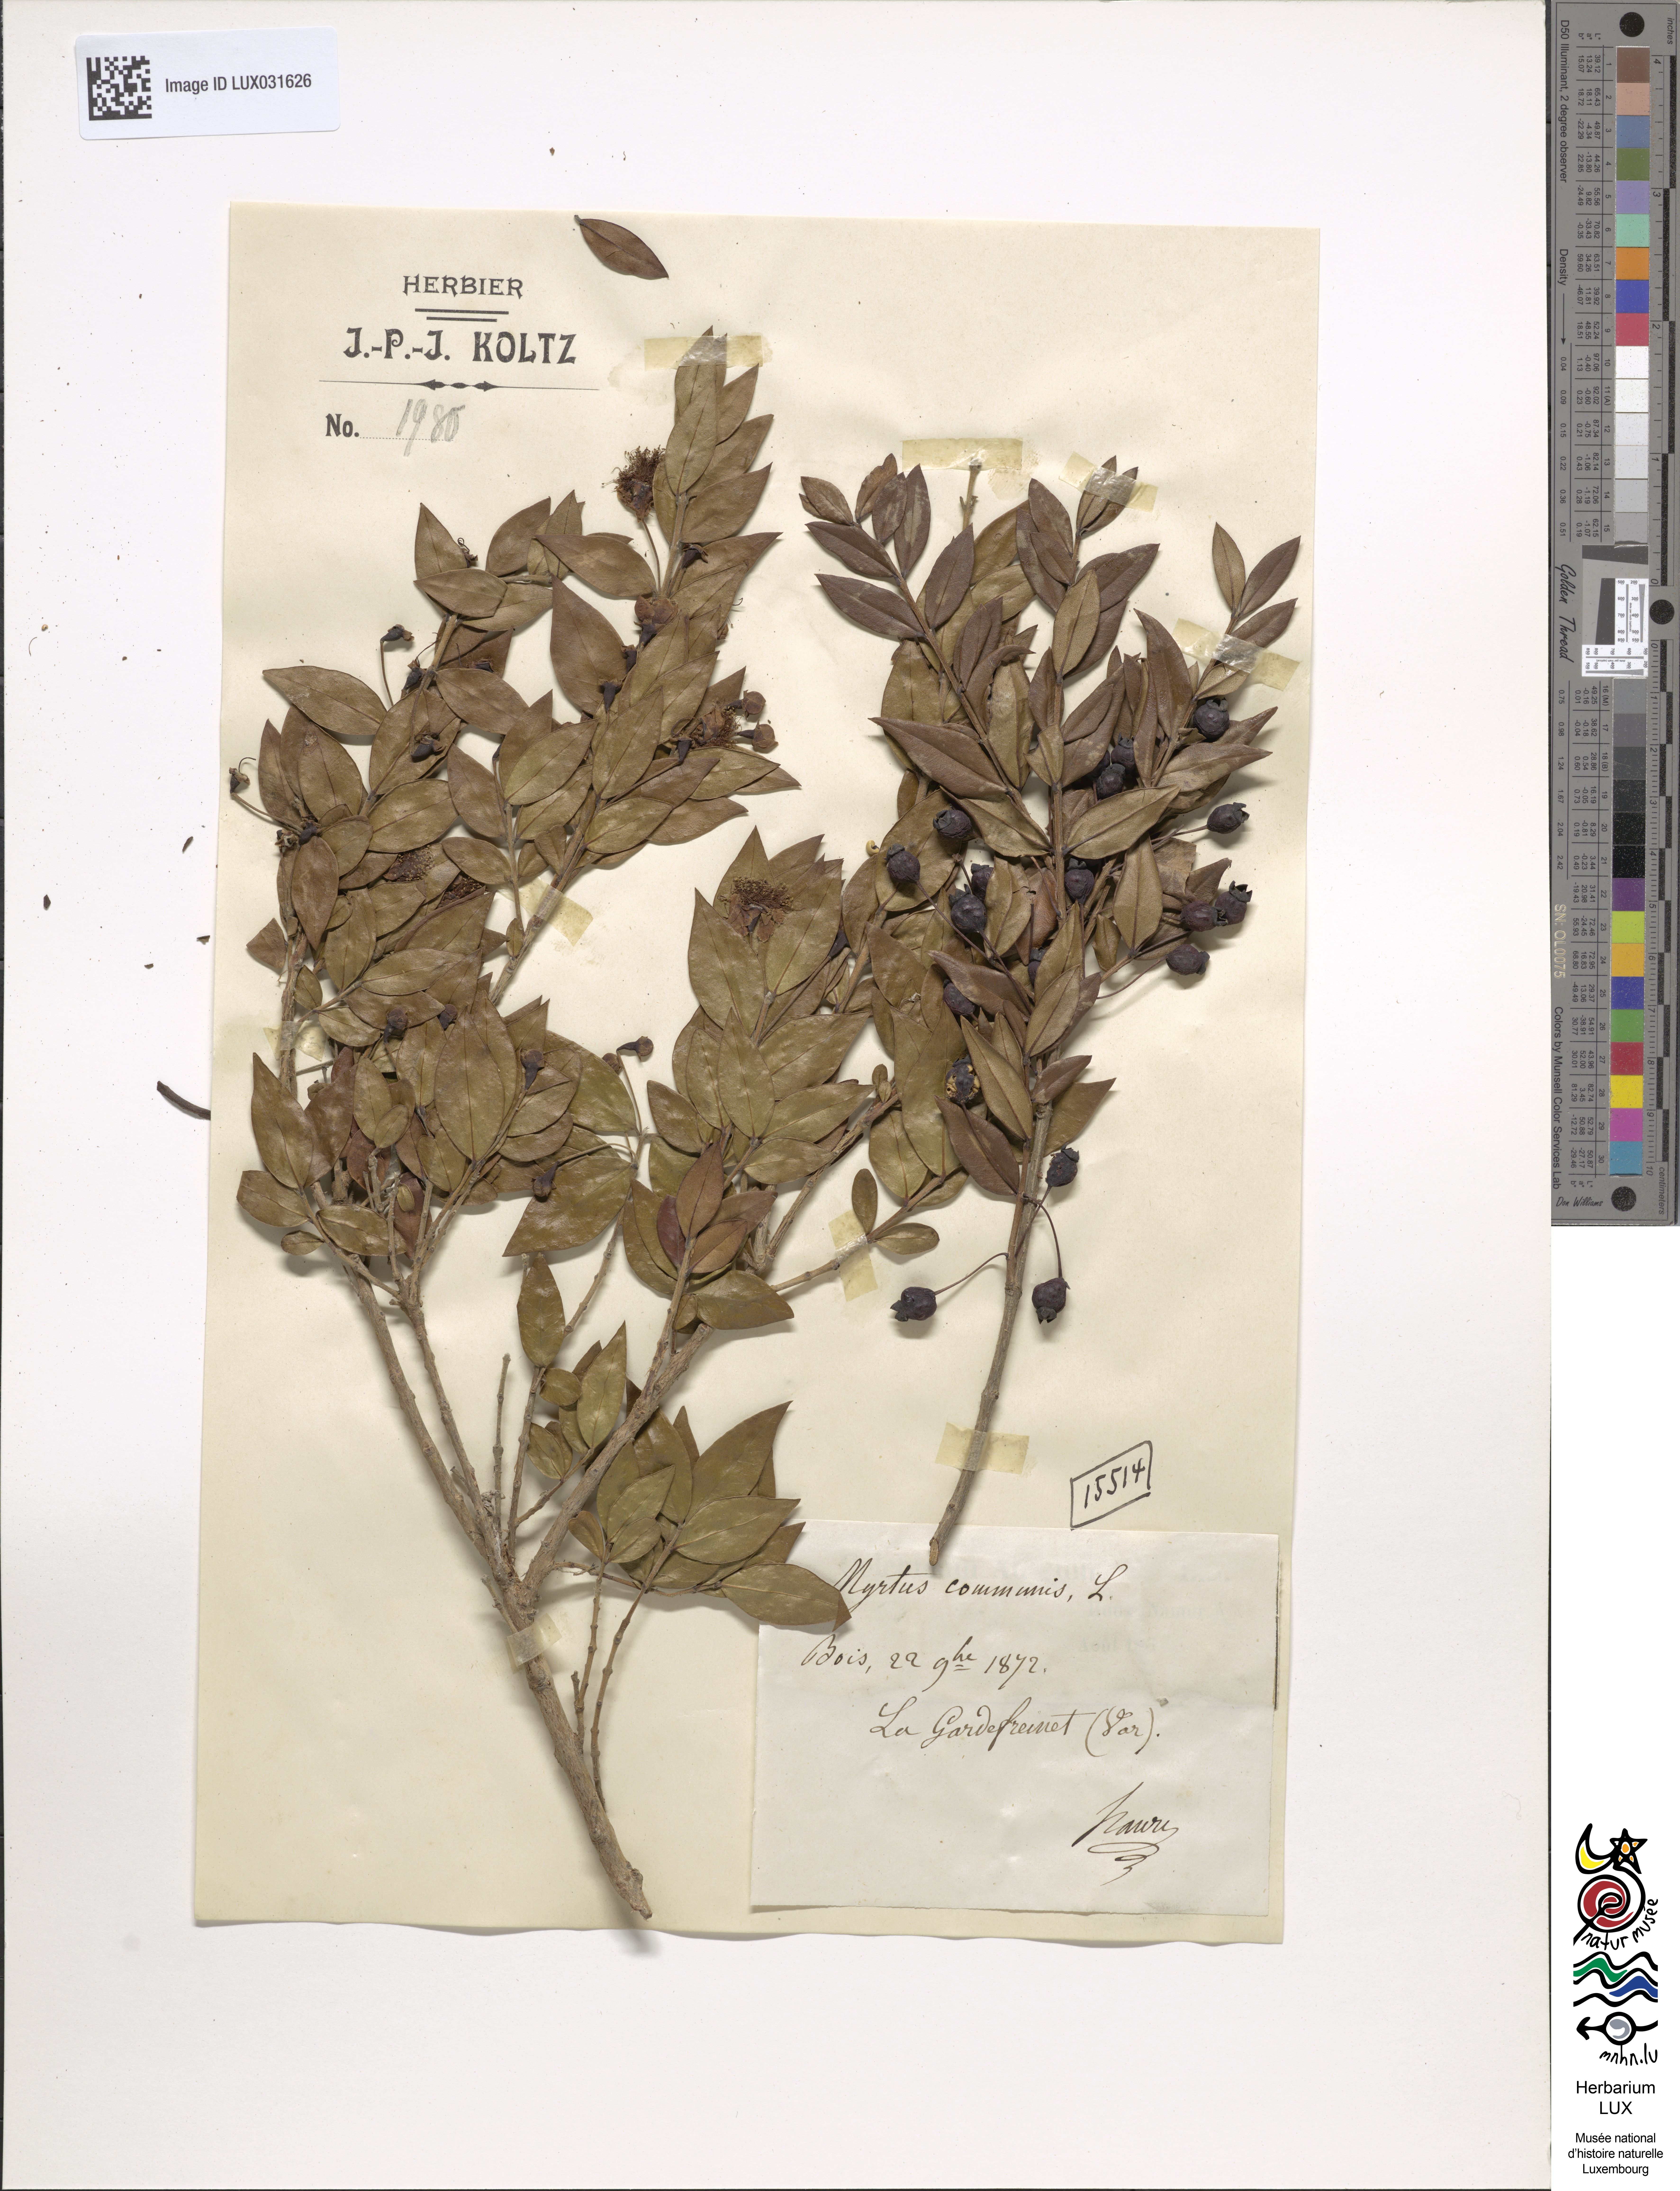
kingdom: Plantae
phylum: Tracheophyta
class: Magnoliopsida
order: Myrtales
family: Myrtaceae
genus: Myrtus
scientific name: Myrtus communis
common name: Myrtle
